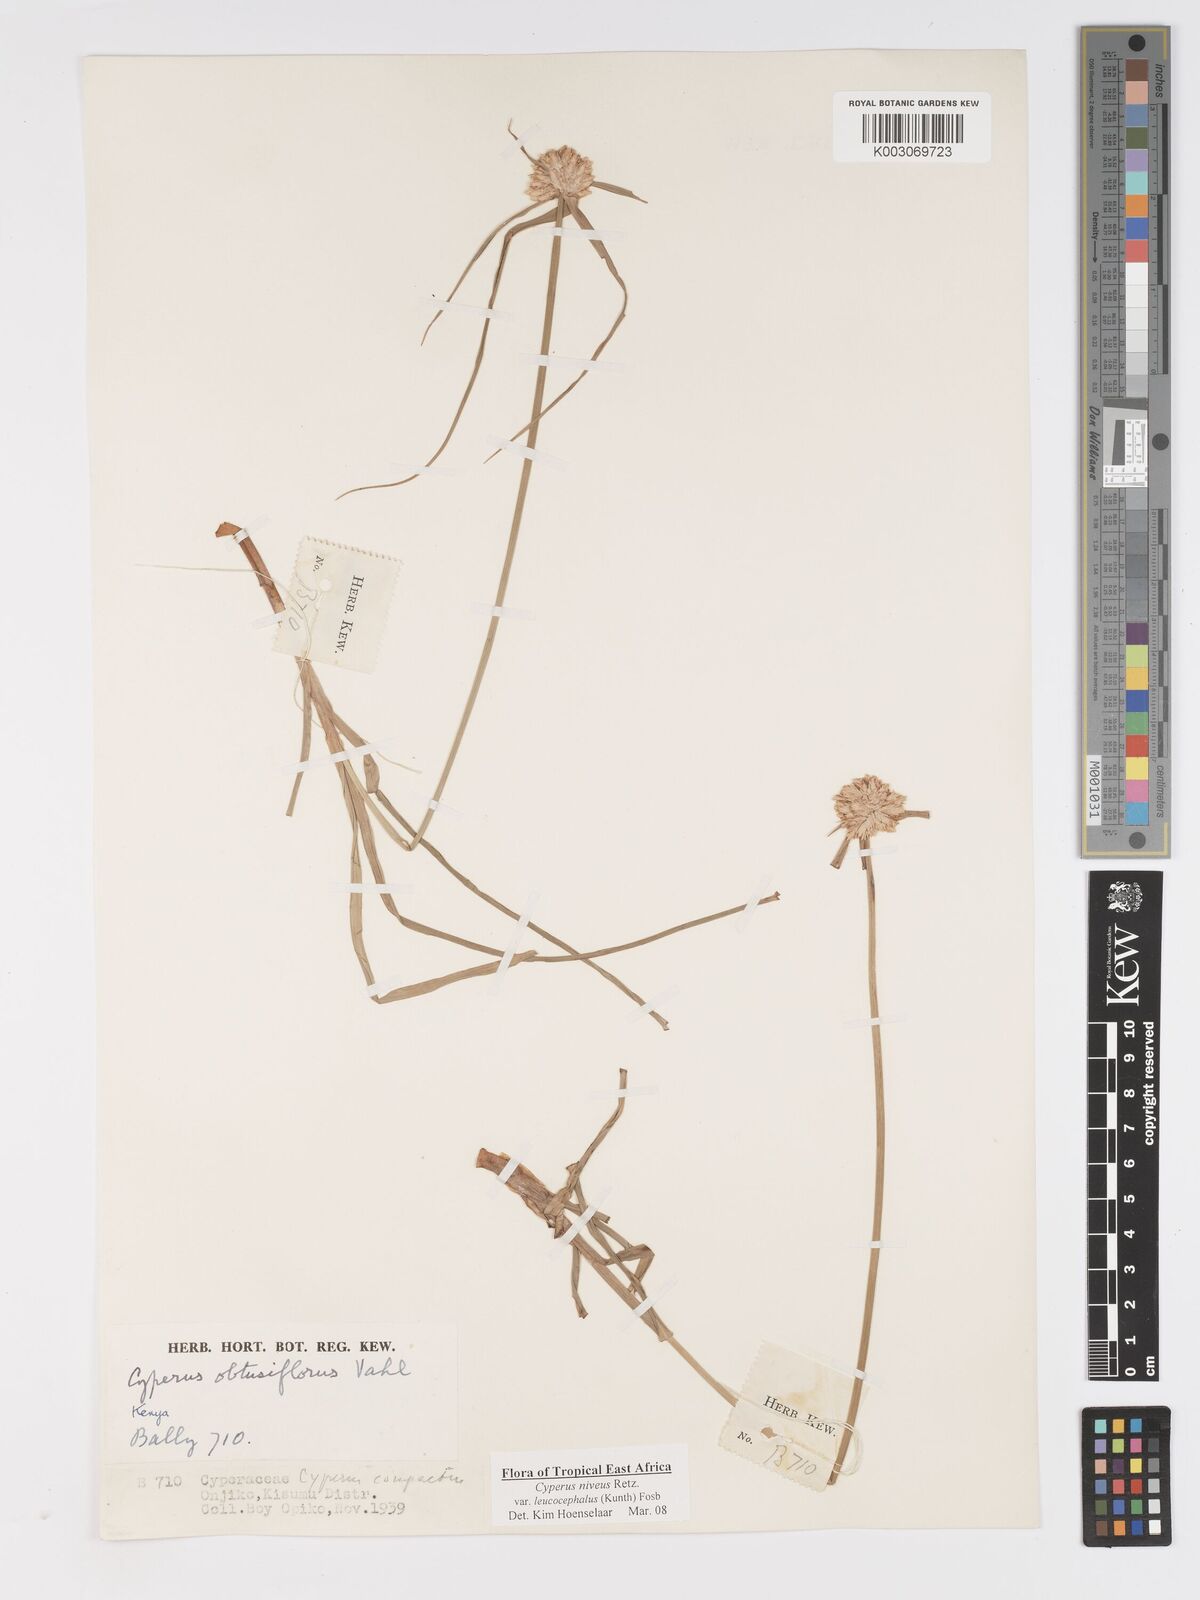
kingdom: Plantae
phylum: Tracheophyta
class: Liliopsida
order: Poales
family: Cyperaceae
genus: Cyperus
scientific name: Cyperus niveus
